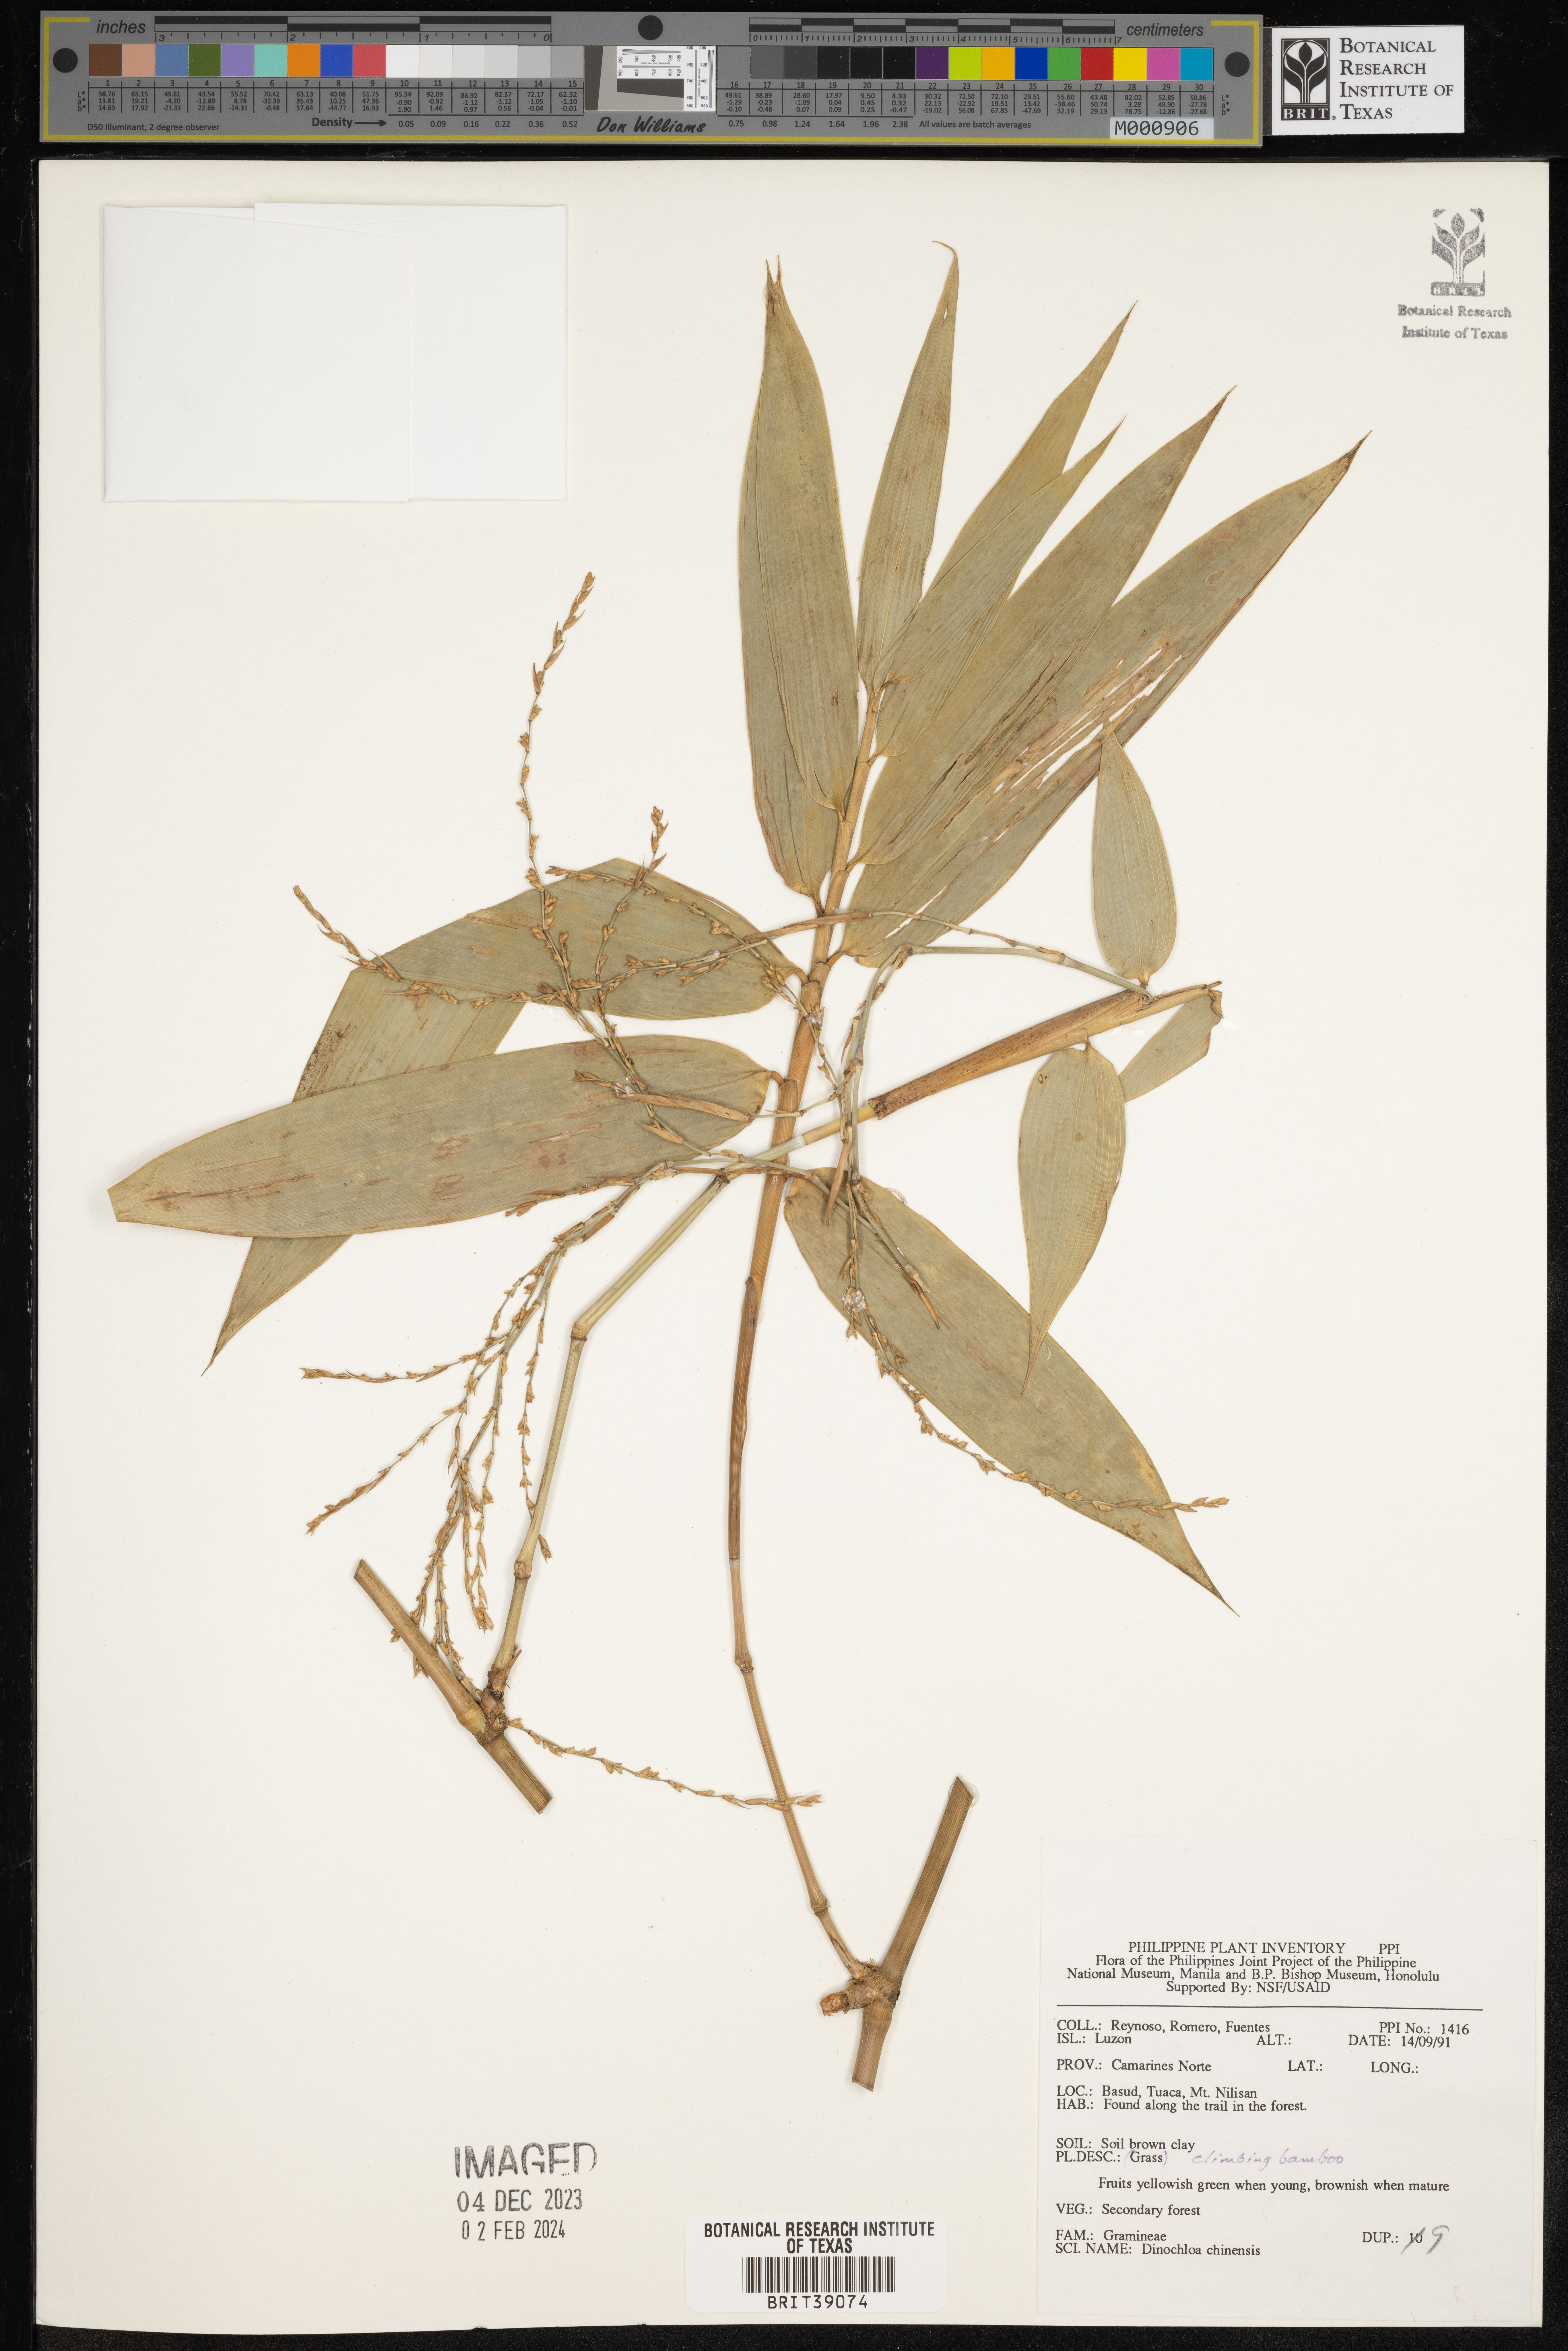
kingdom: Plantae
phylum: Tracheophyta
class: Liliopsida
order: Poales
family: Poaceae
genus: Dinochloa
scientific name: Dinochloa
